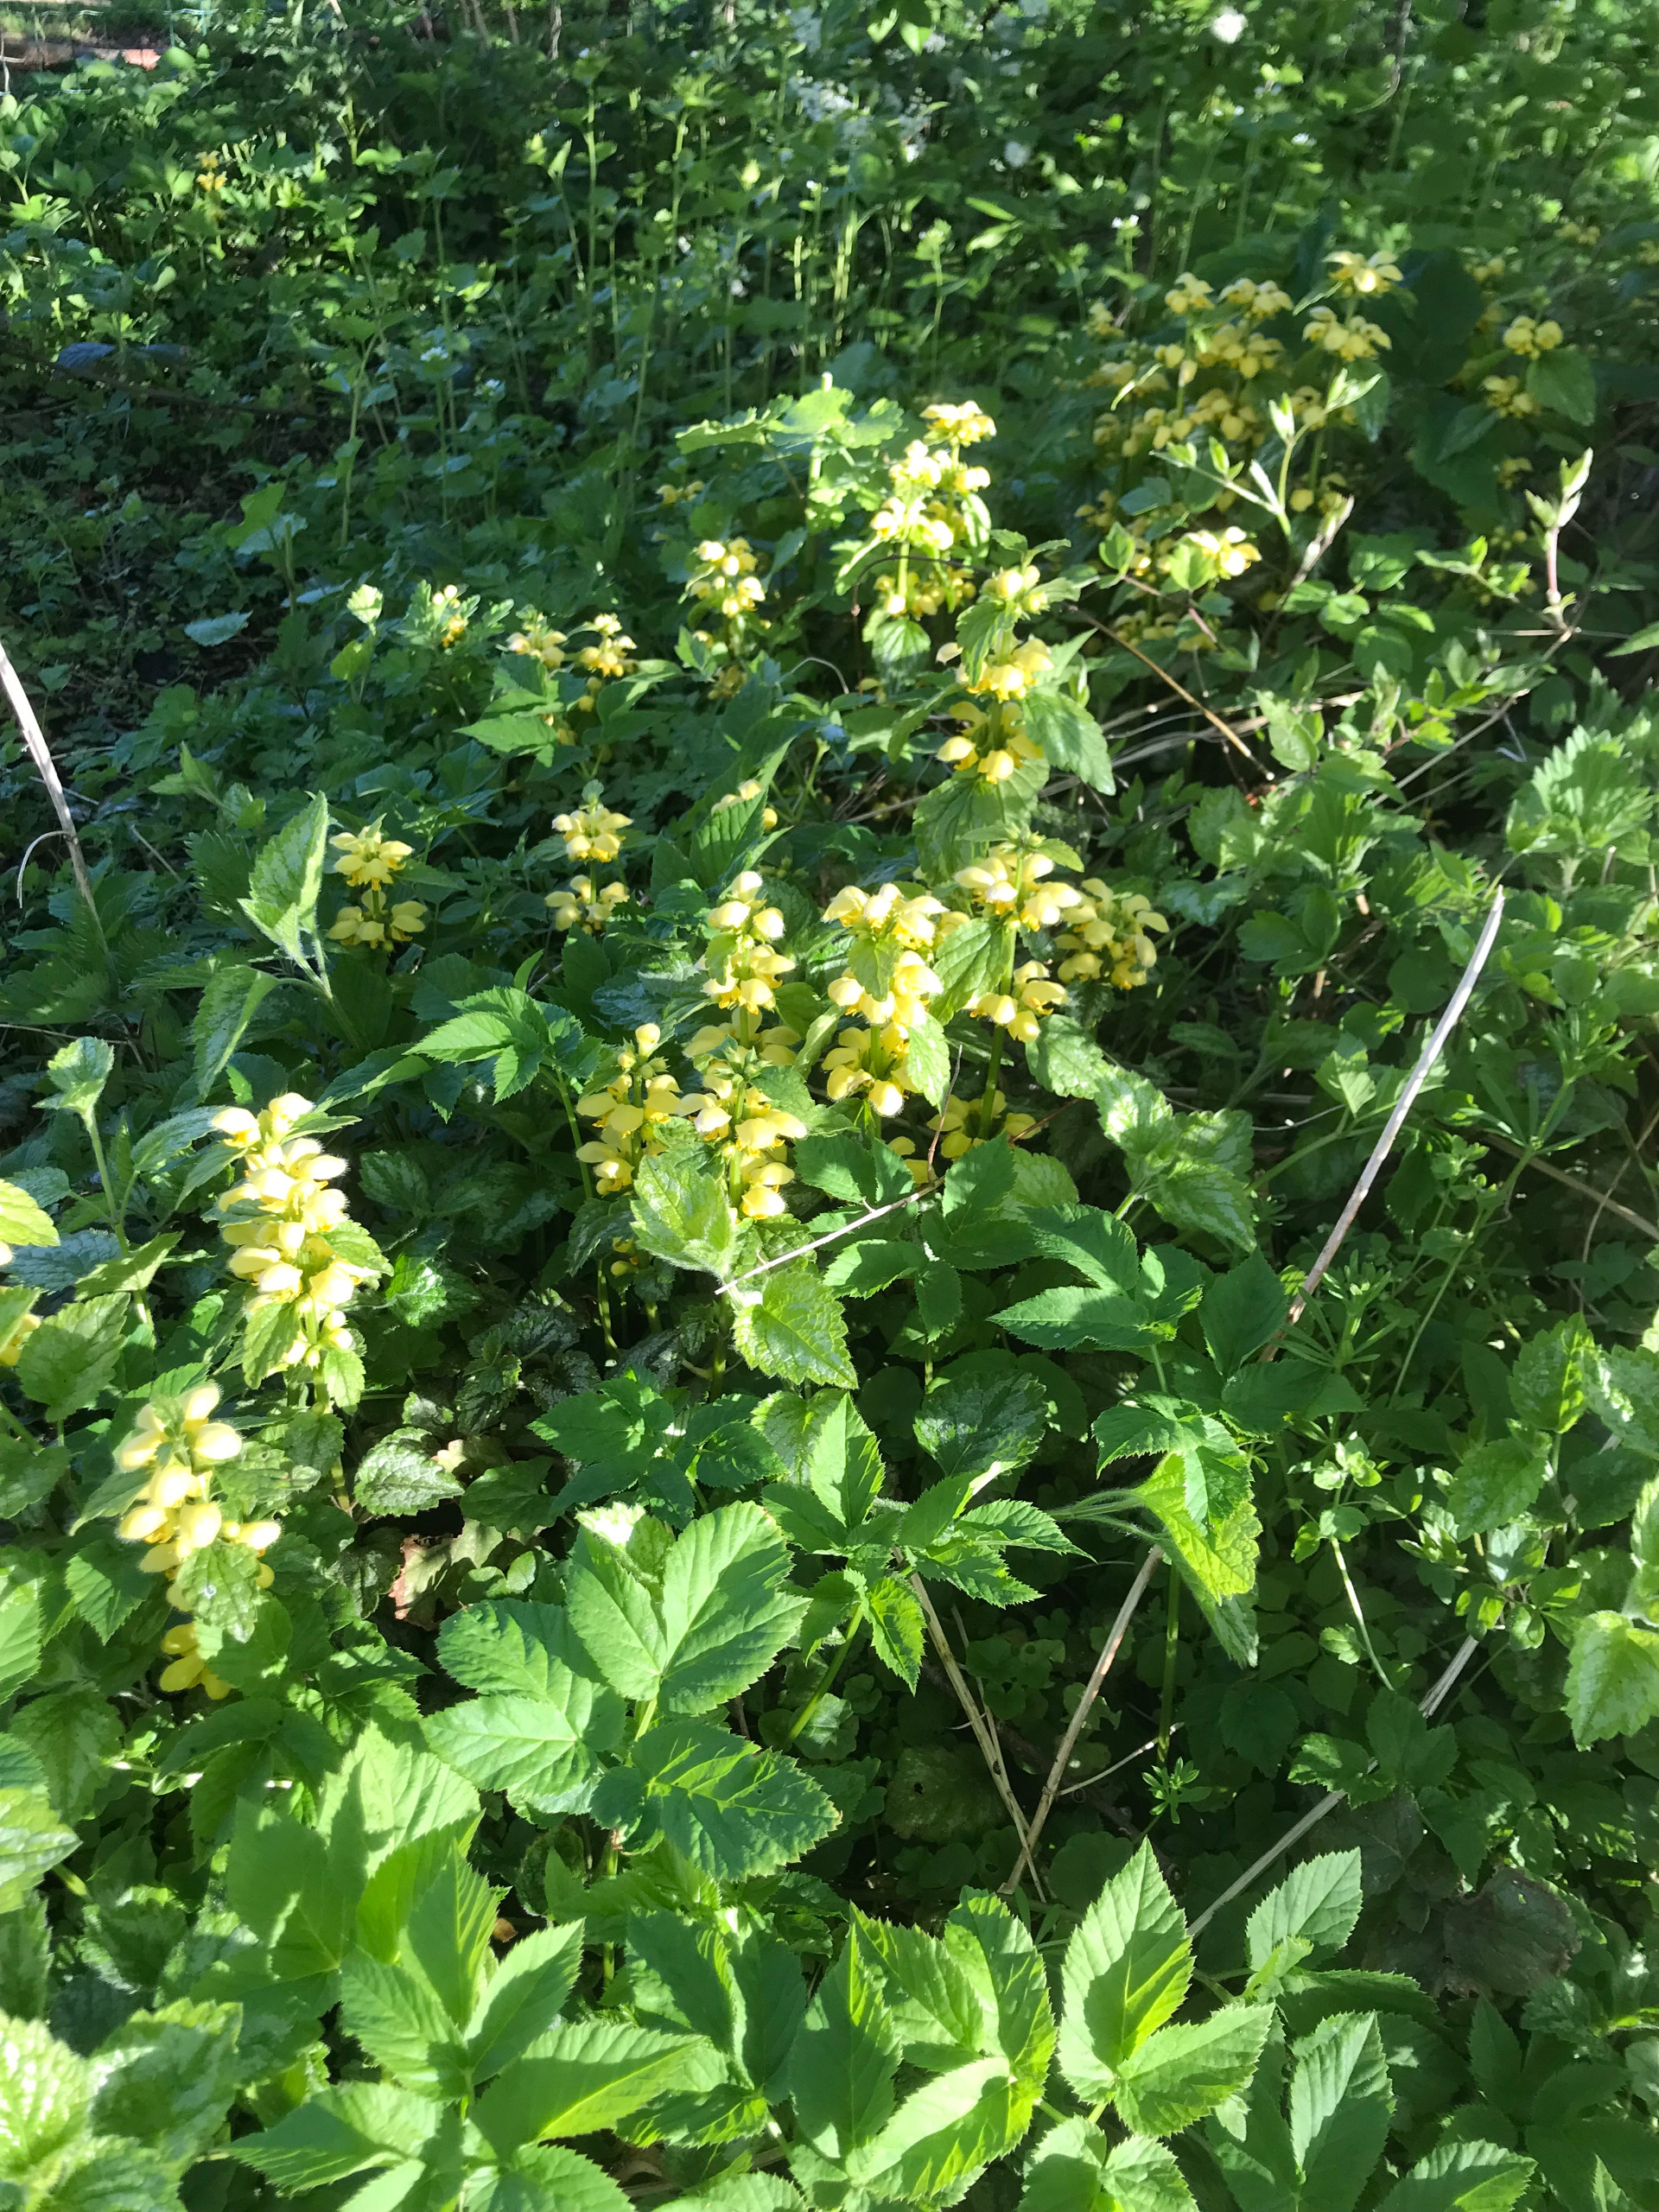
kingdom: Plantae
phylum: Tracheophyta
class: Magnoliopsida
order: Lamiales
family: Lamiaceae
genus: Lamium
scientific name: Lamium galeobdolon
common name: Have-guldnælde
